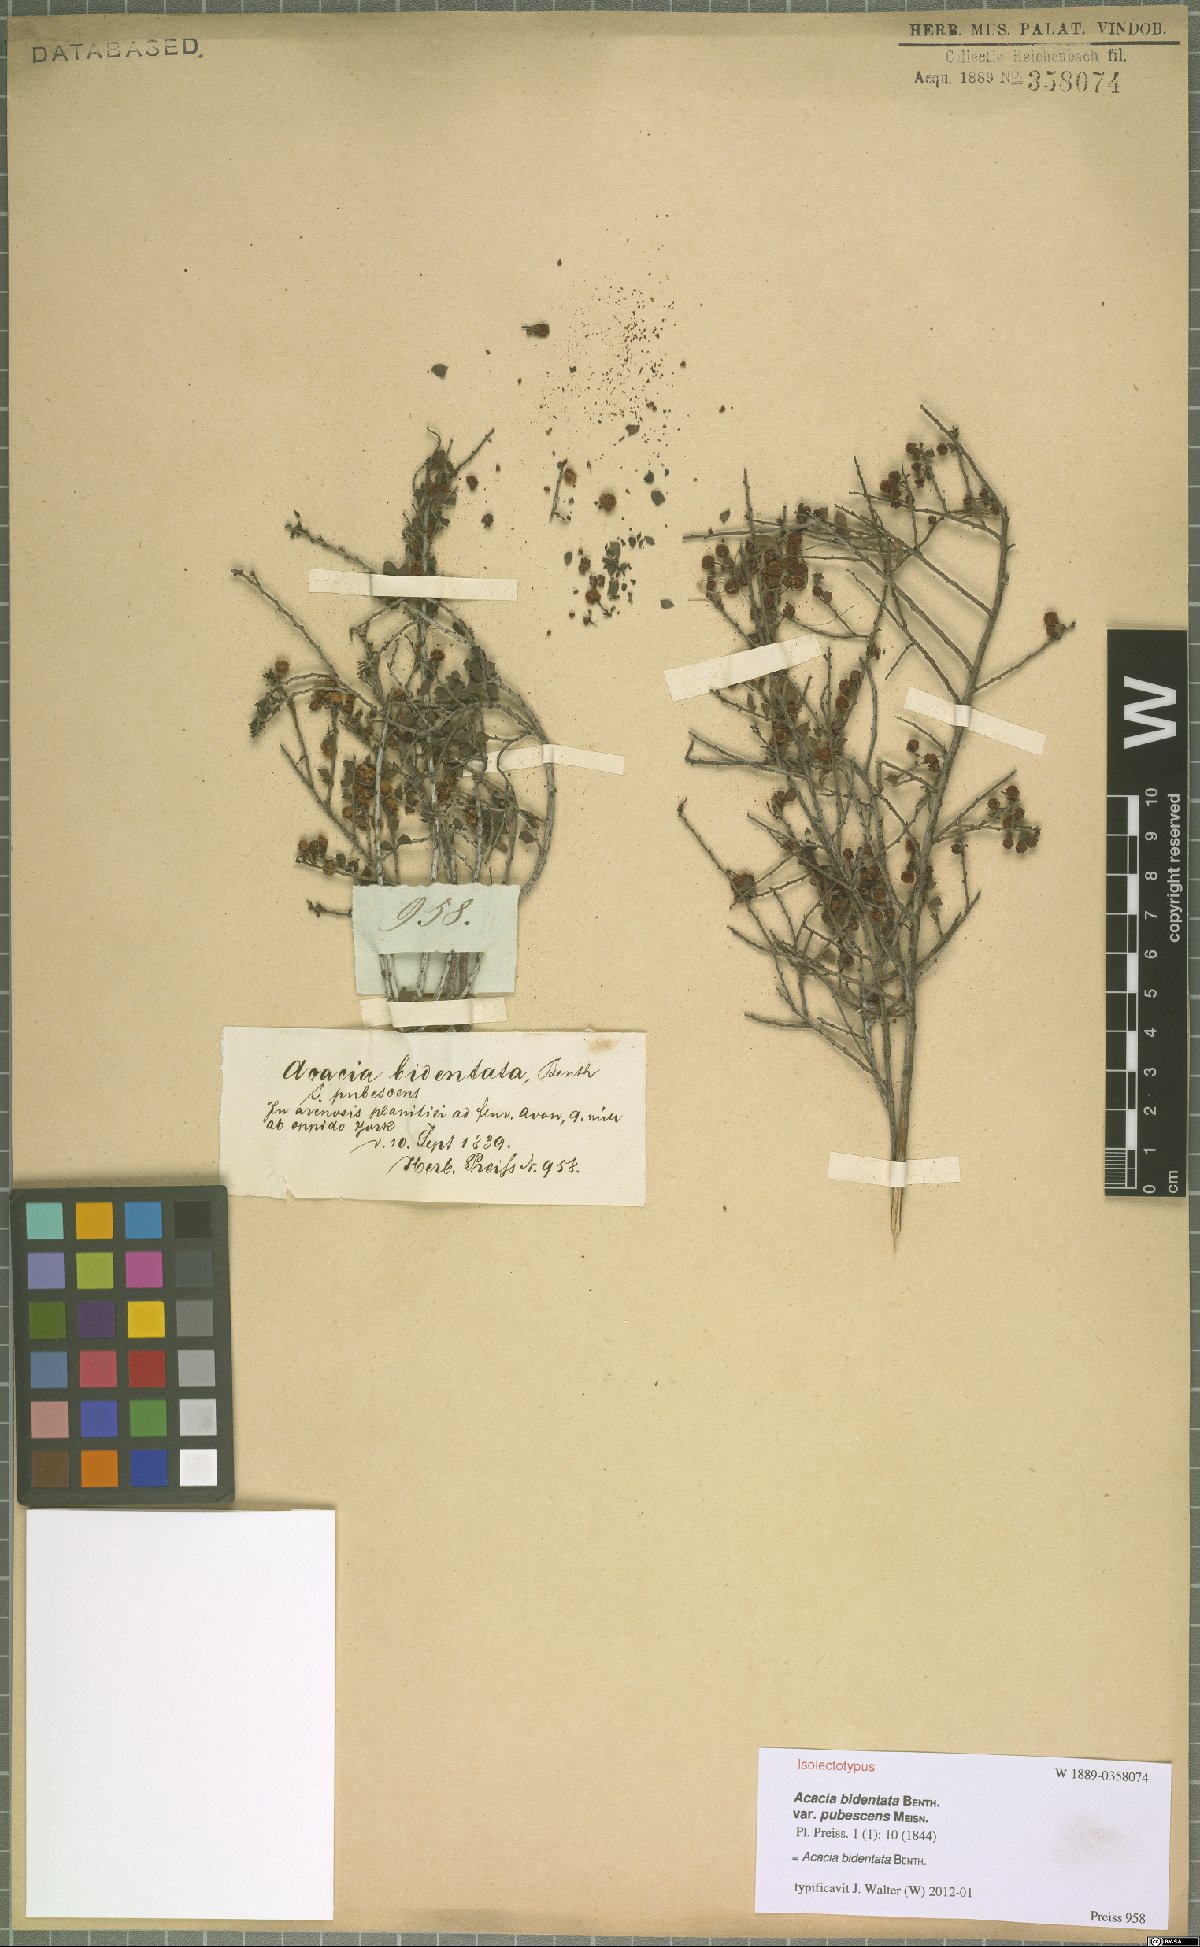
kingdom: Plantae
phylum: Tracheophyta
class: Magnoliopsida
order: Fabales
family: Fabaceae
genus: Acacia
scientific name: Acacia bidentata
